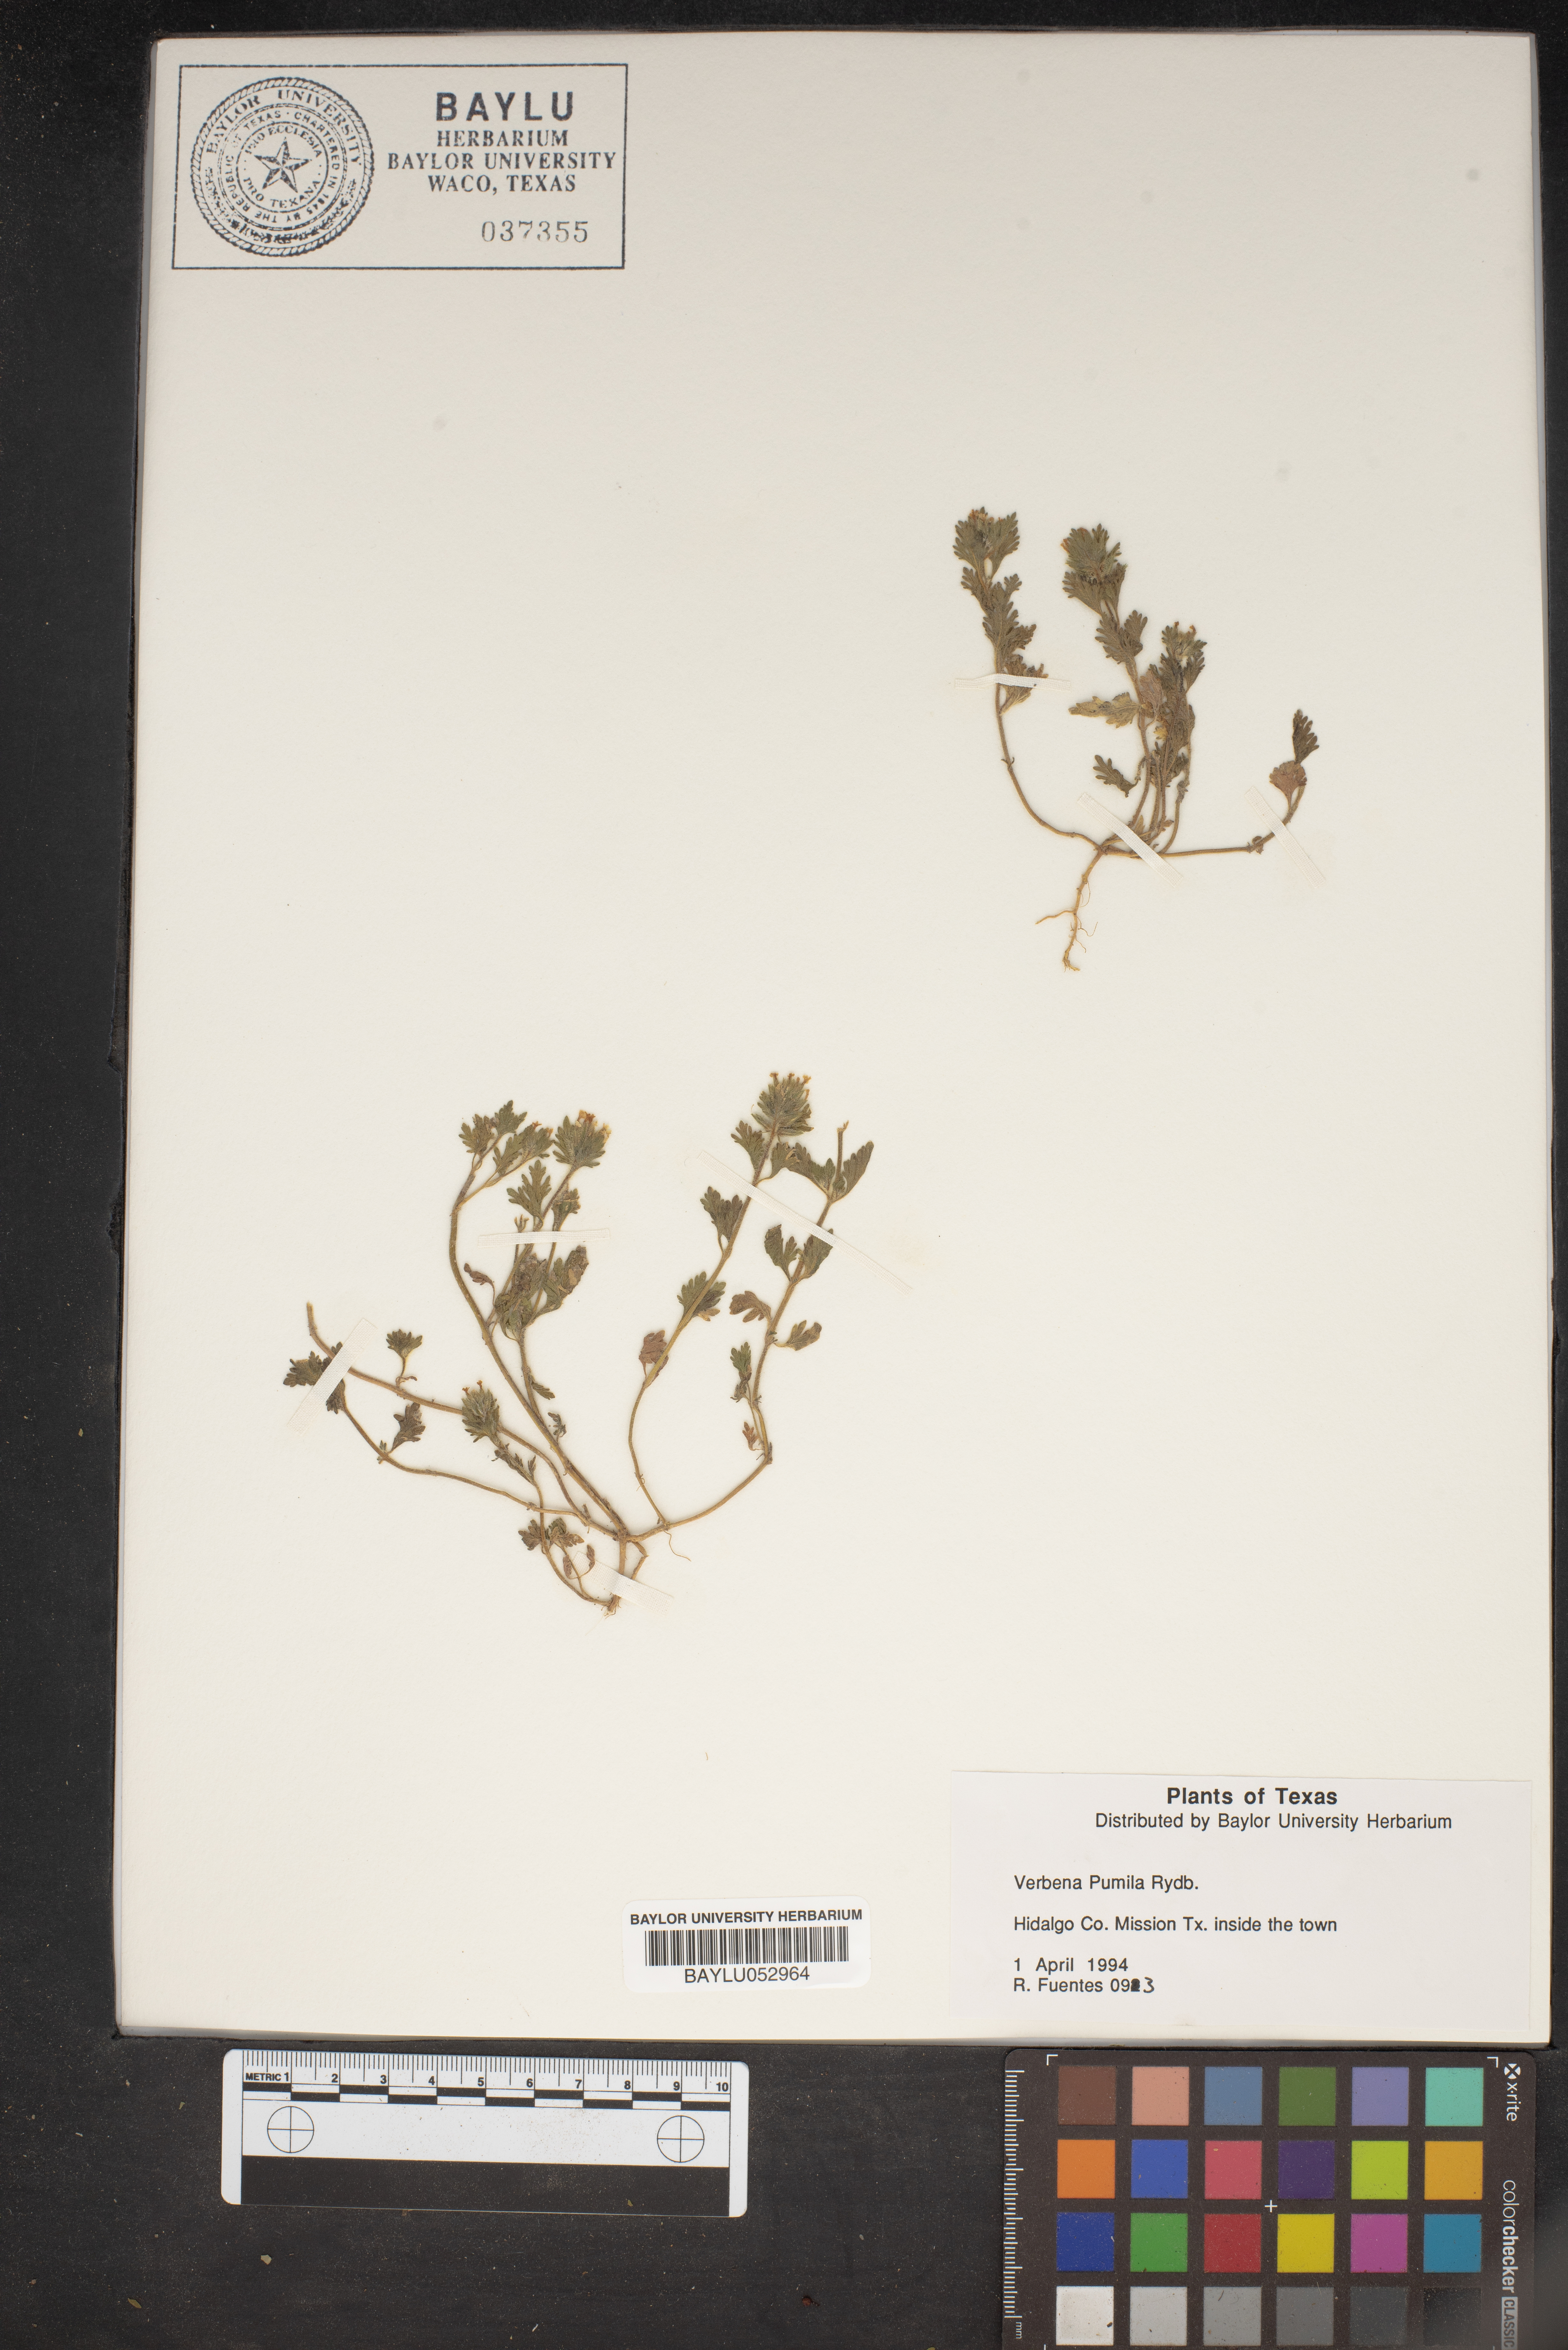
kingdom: Plantae
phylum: Tracheophyta
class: Magnoliopsida
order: Lamiales
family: Verbenaceae
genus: Verbena
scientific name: Verbena pumila
